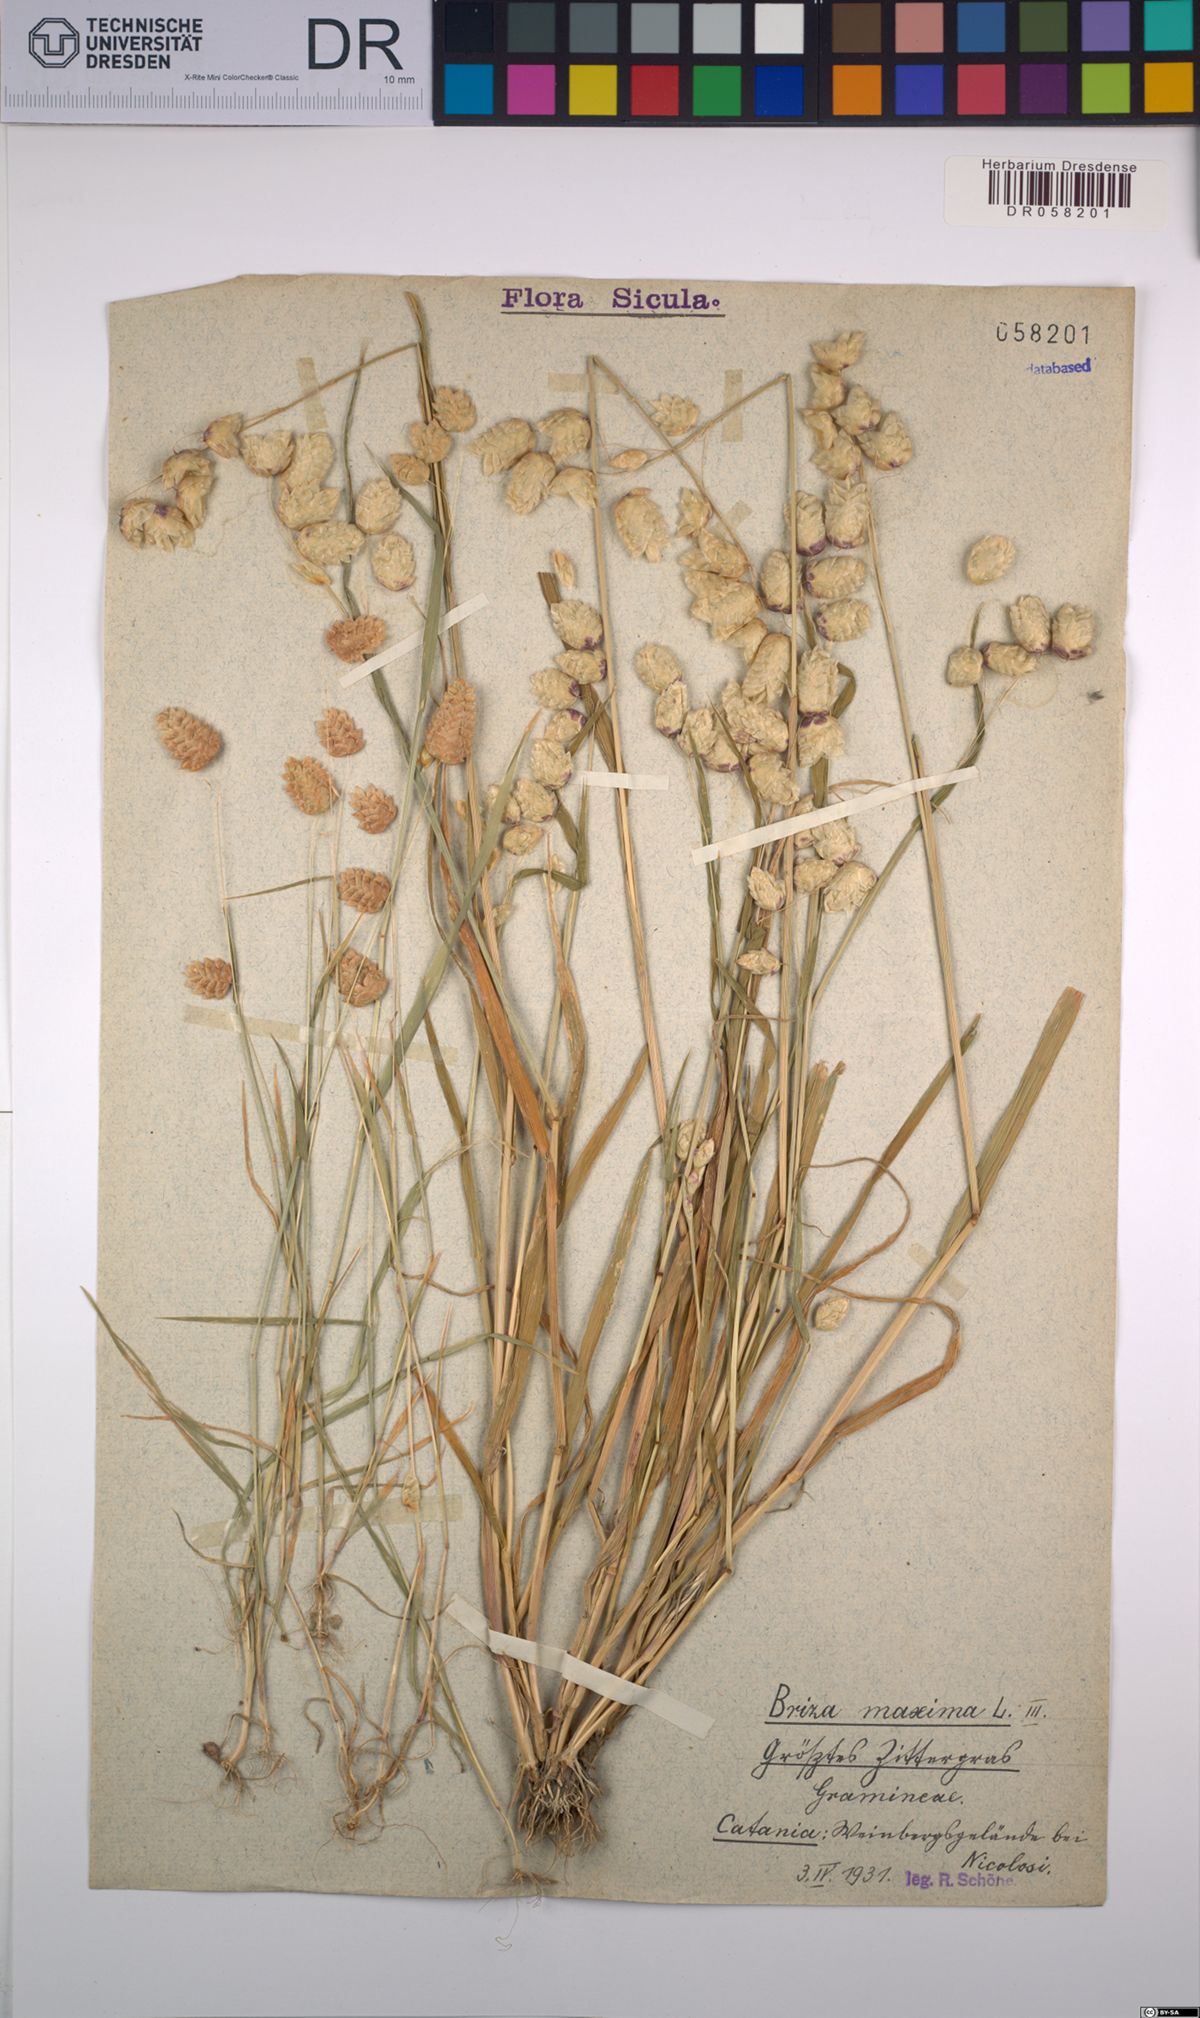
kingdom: Plantae
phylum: Tracheophyta
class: Liliopsida
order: Poales
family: Poaceae
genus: Briza
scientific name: Briza maxima
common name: Big quakinggrass
